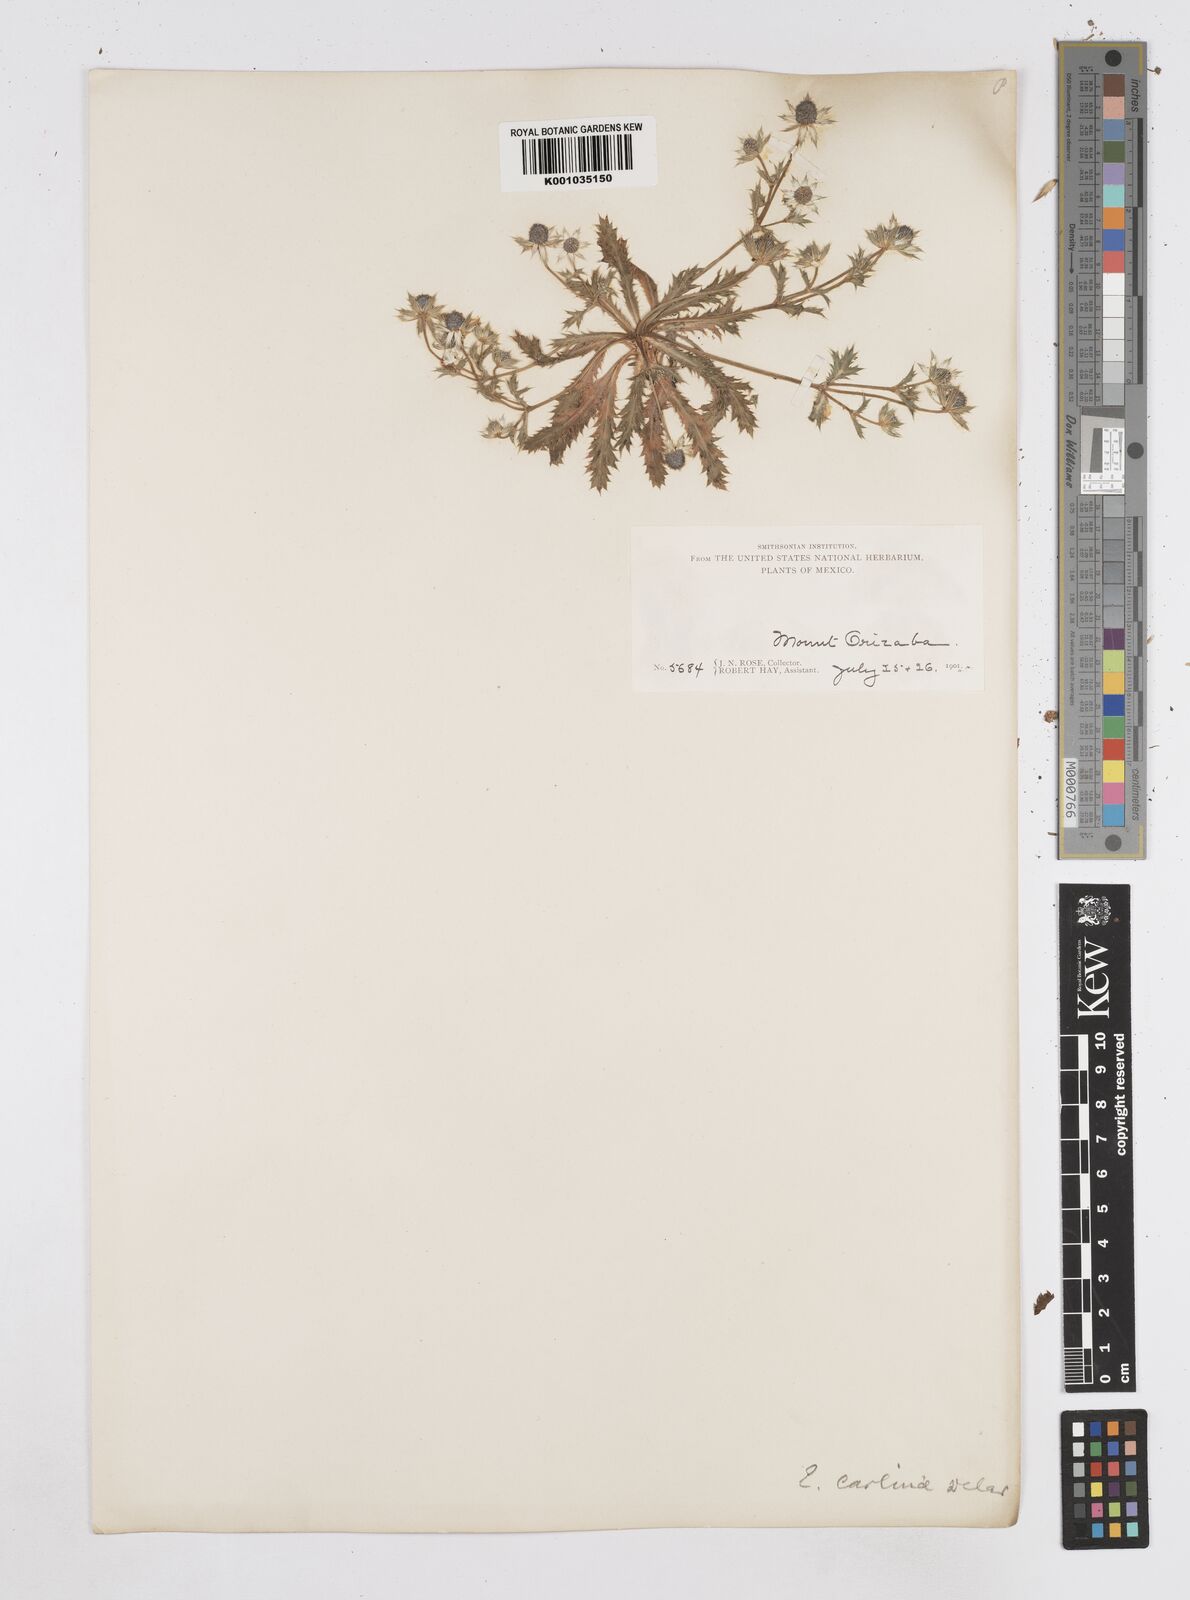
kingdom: Plantae
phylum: Tracheophyta
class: Magnoliopsida
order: Apiales
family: Apiaceae
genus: Eryngium
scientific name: Eryngium carlinae
